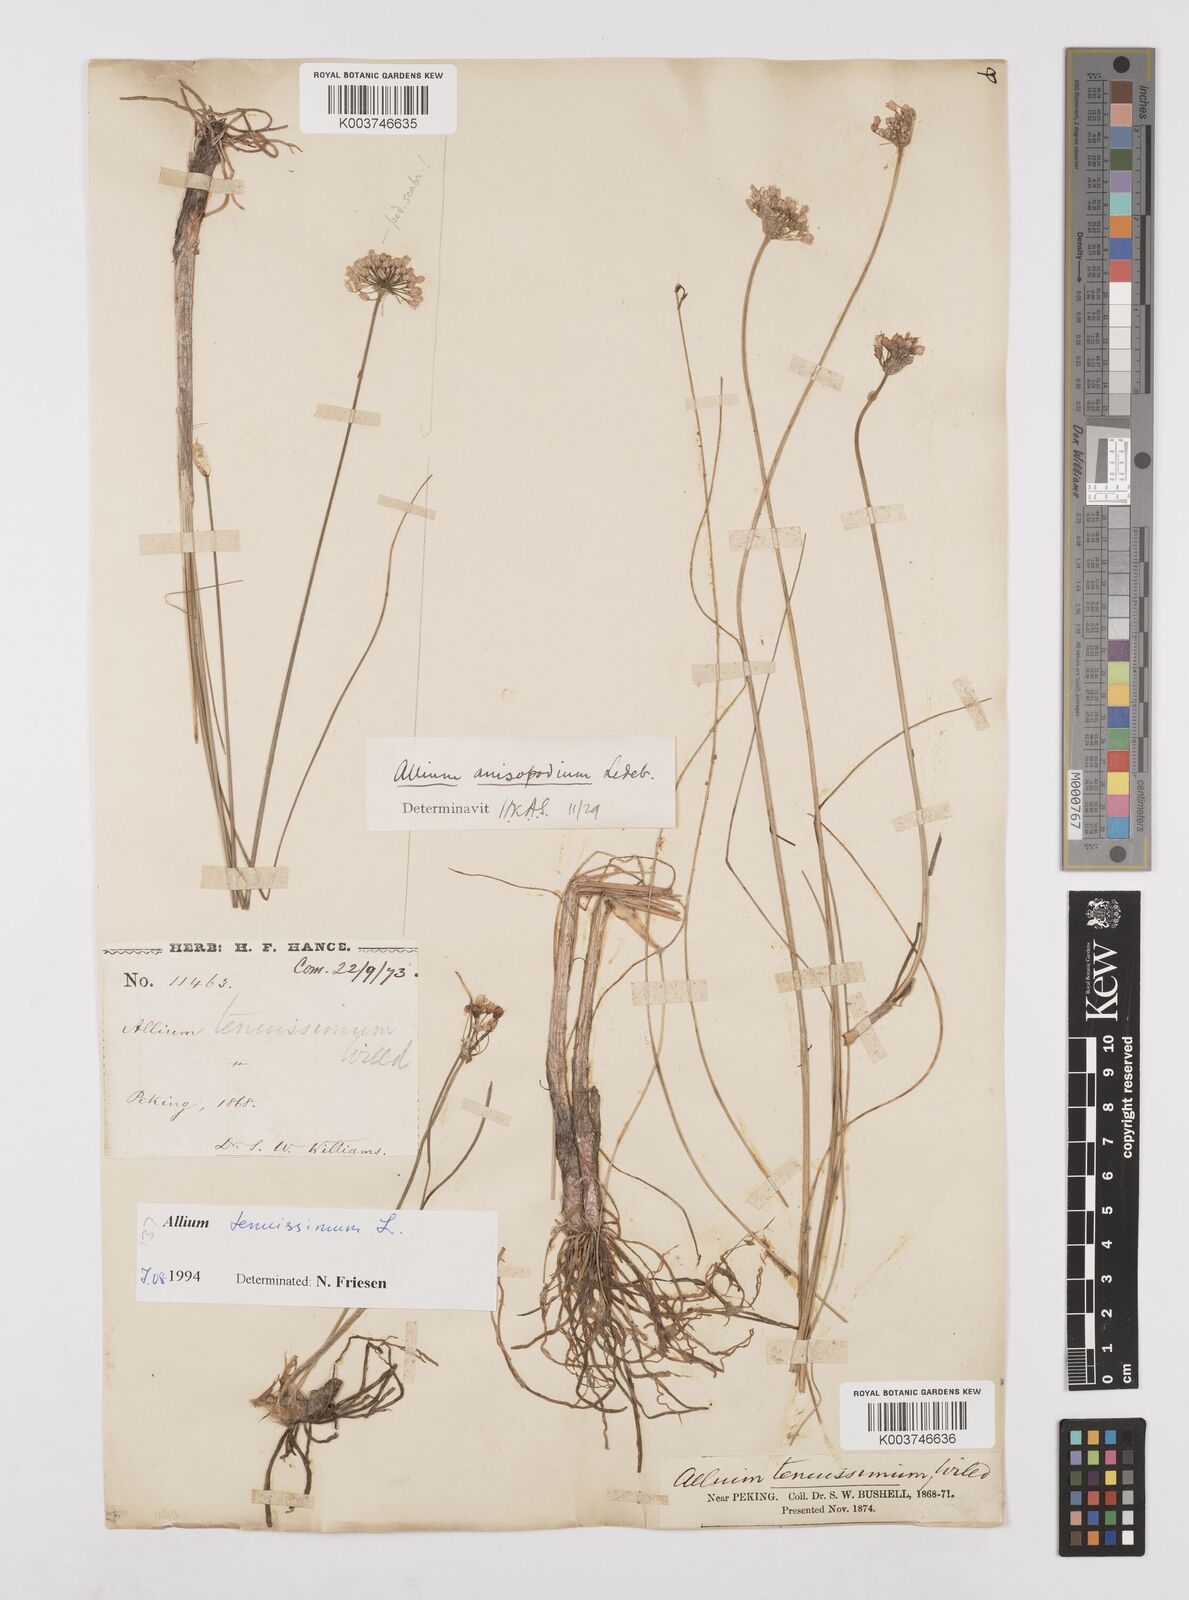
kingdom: Plantae
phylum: Tracheophyta
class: Liliopsida
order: Asparagales
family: Amaryllidaceae
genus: Allium
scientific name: Allium tenuissimum
